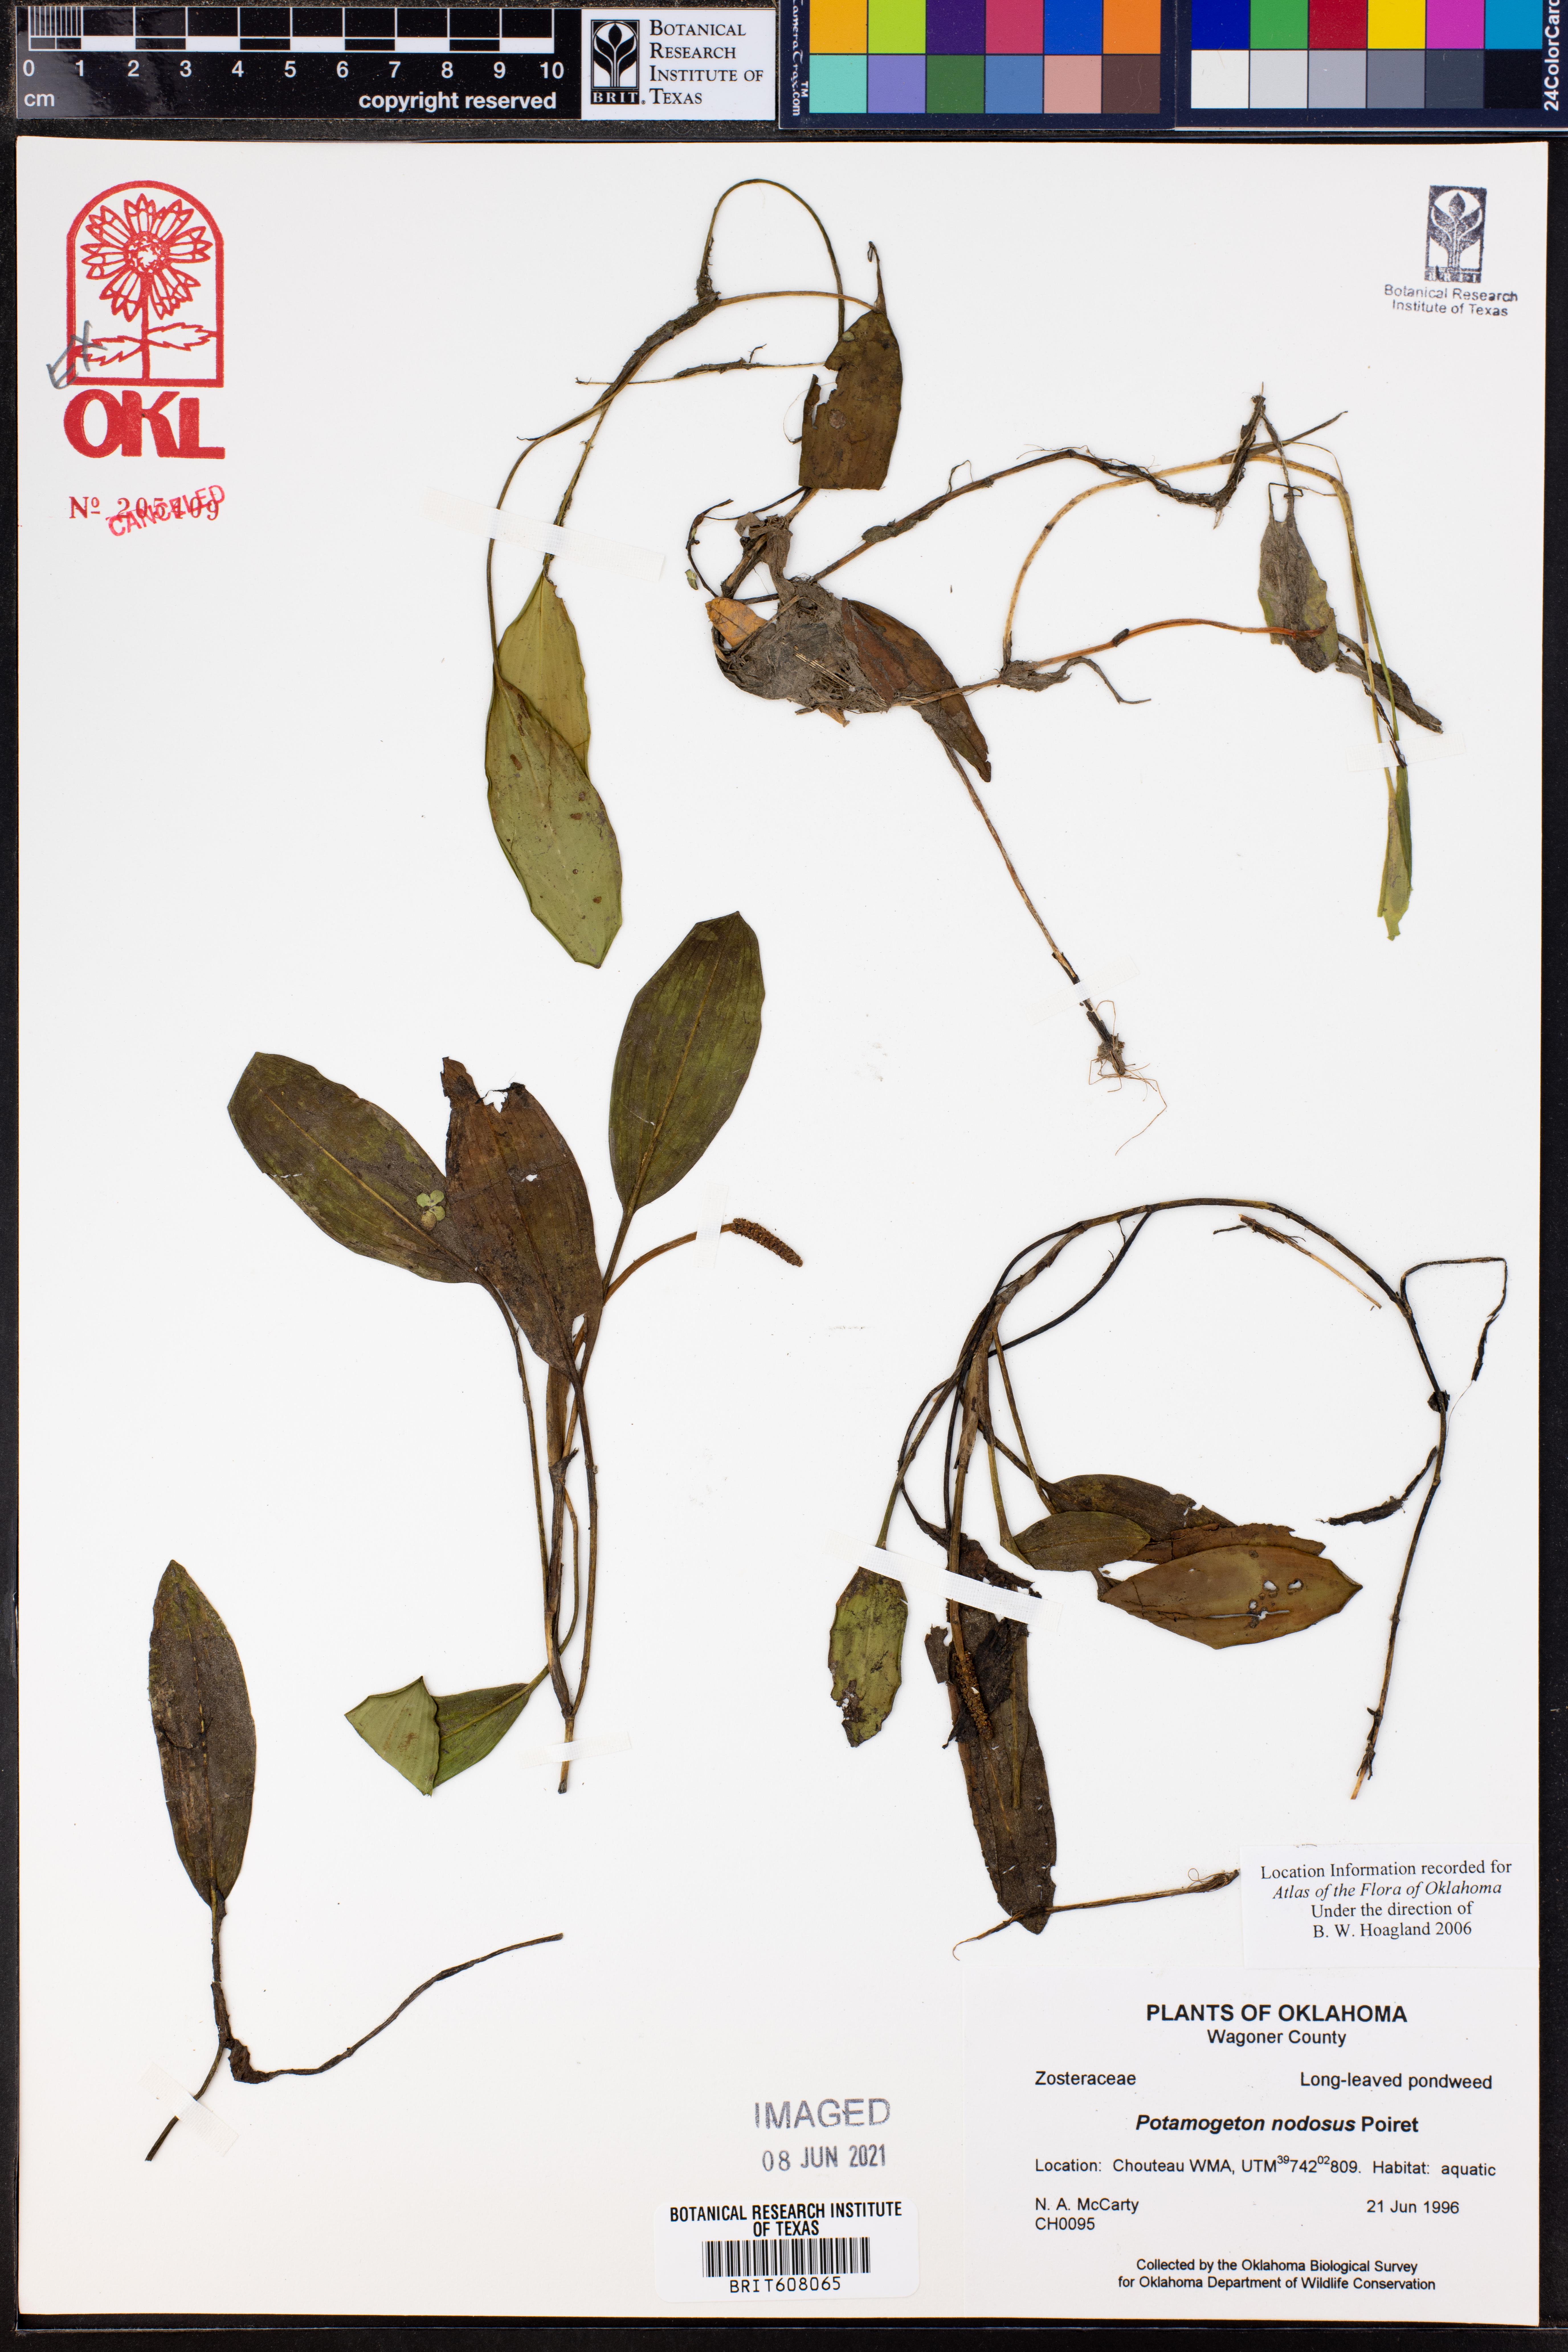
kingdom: Plantae
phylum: Tracheophyta
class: Liliopsida
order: Alismatales
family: Potamogetonaceae
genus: Potamogeton
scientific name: Potamogeton nodosus
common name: Loddon pondweed
